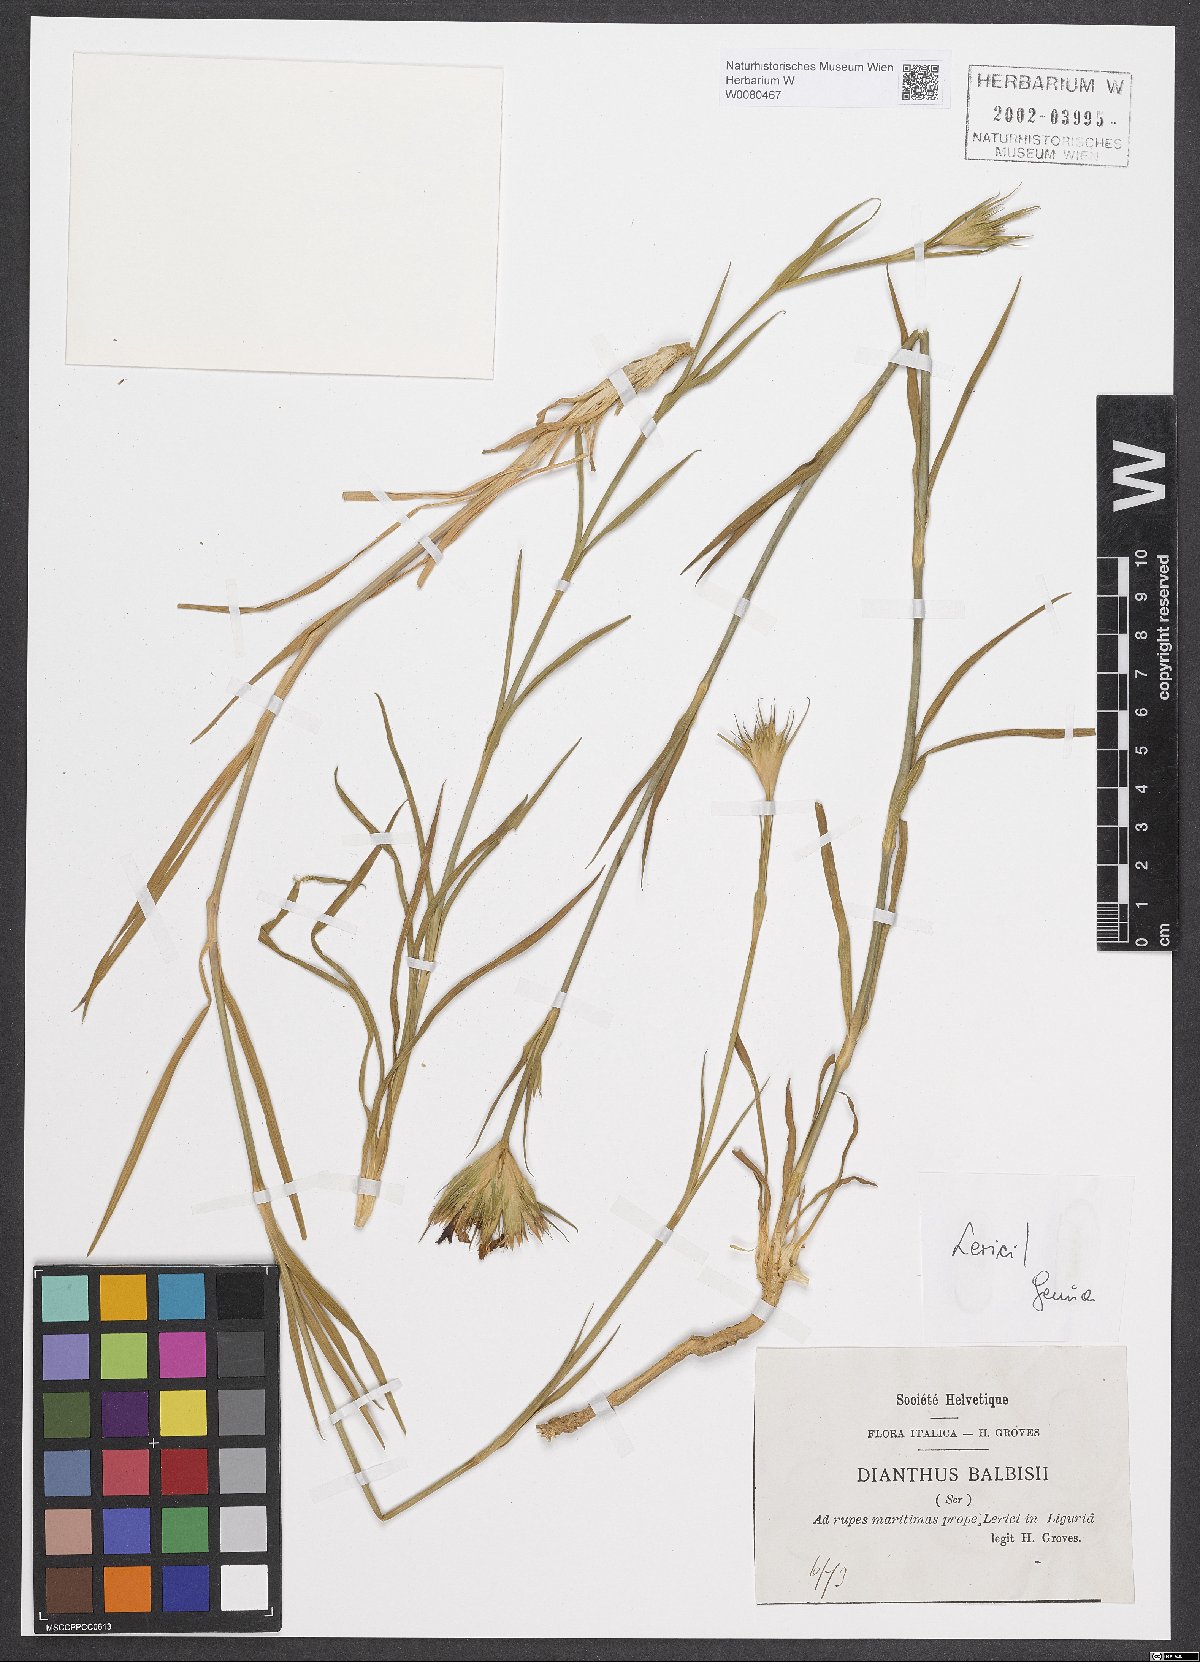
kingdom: Plantae
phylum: Tracheophyta
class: Magnoliopsida
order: Caryophyllales
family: Caryophyllaceae
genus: Dianthus
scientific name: Dianthus balbisii
